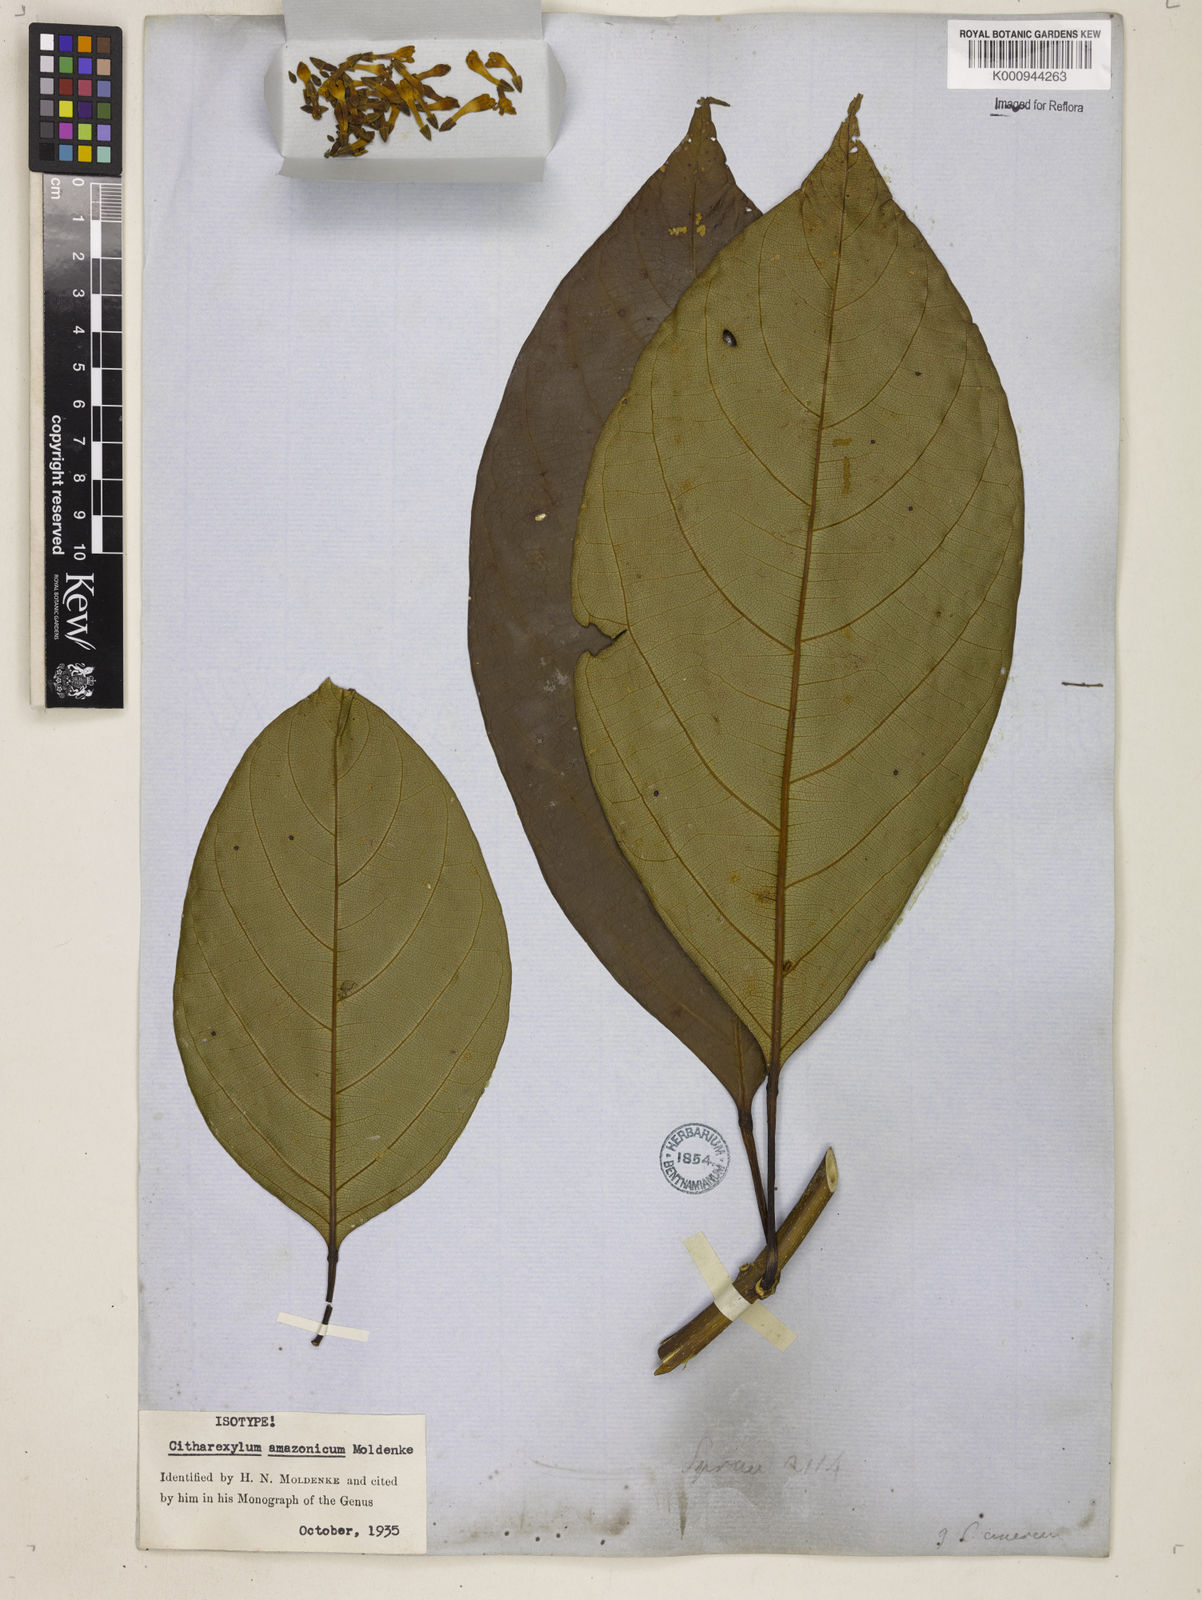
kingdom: Plantae
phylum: Tracheophyta
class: Magnoliopsida
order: Lamiales
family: Verbenaceae
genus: Citharexylum
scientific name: Citharexylum macrochlamys
